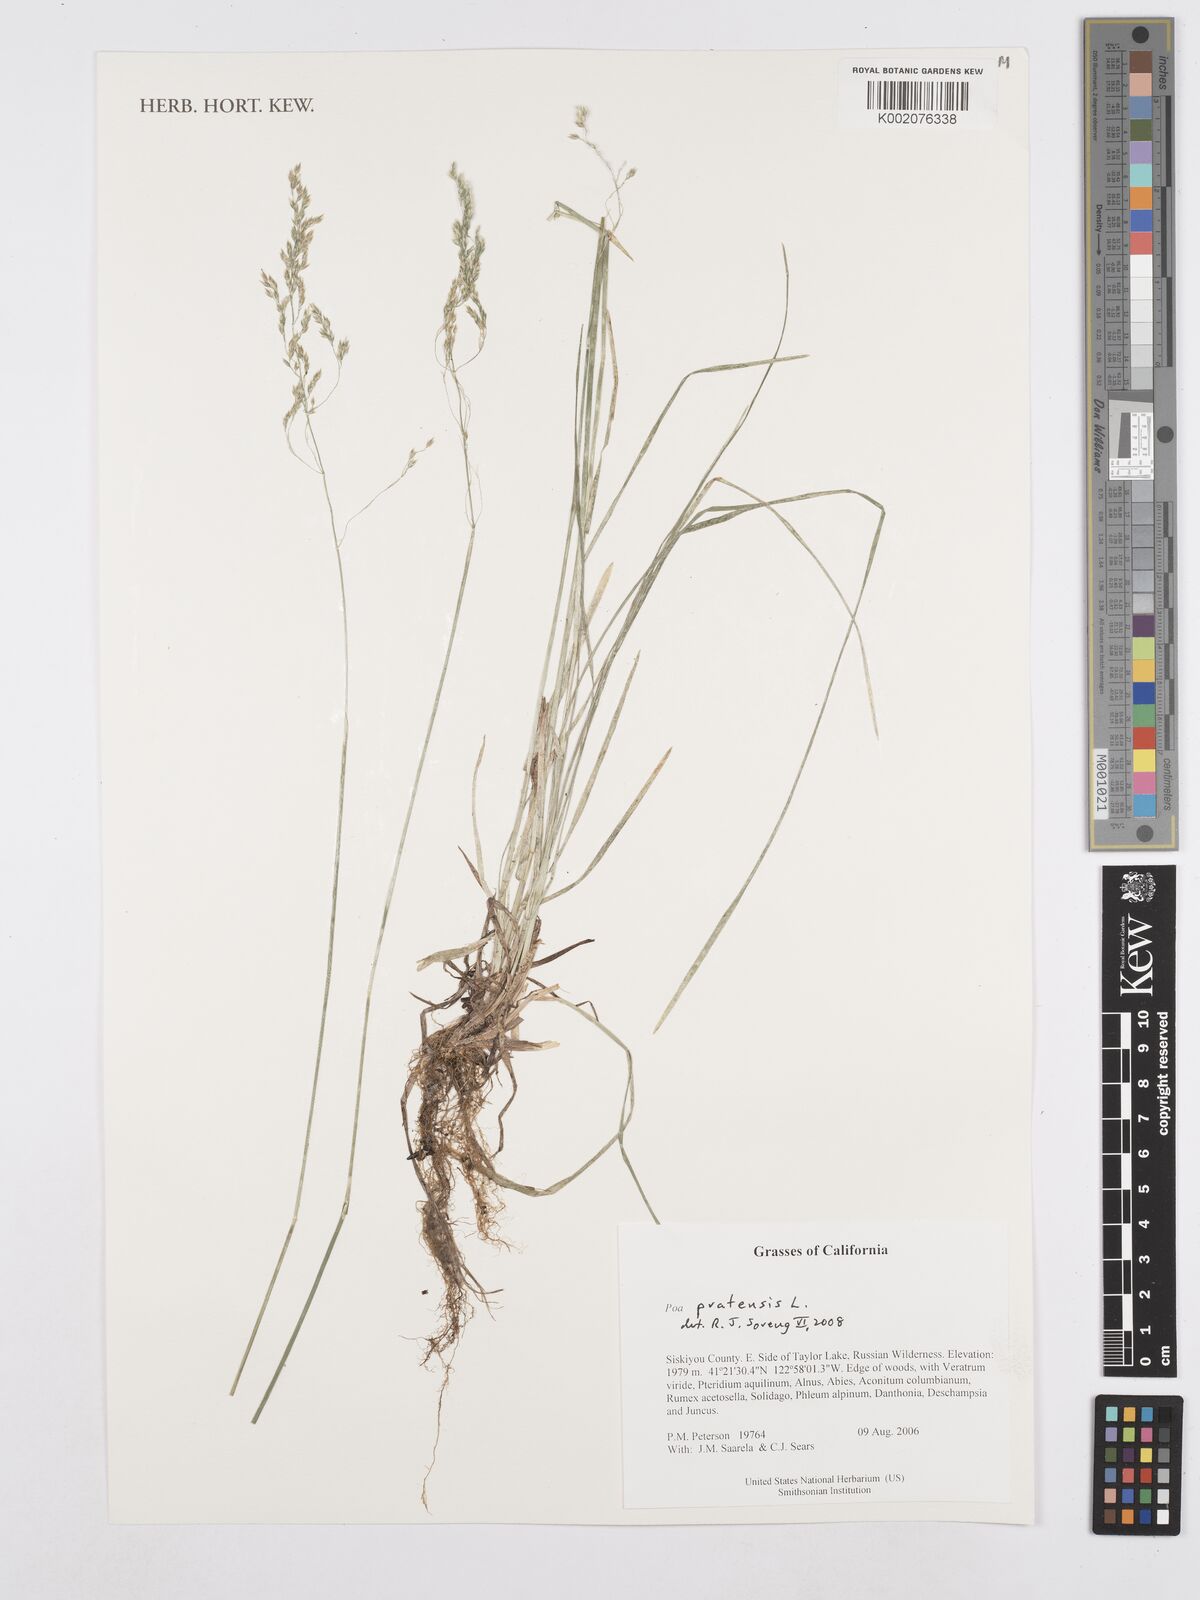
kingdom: Plantae
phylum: Tracheophyta
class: Liliopsida
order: Poales
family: Poaceae
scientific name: Poaceae
